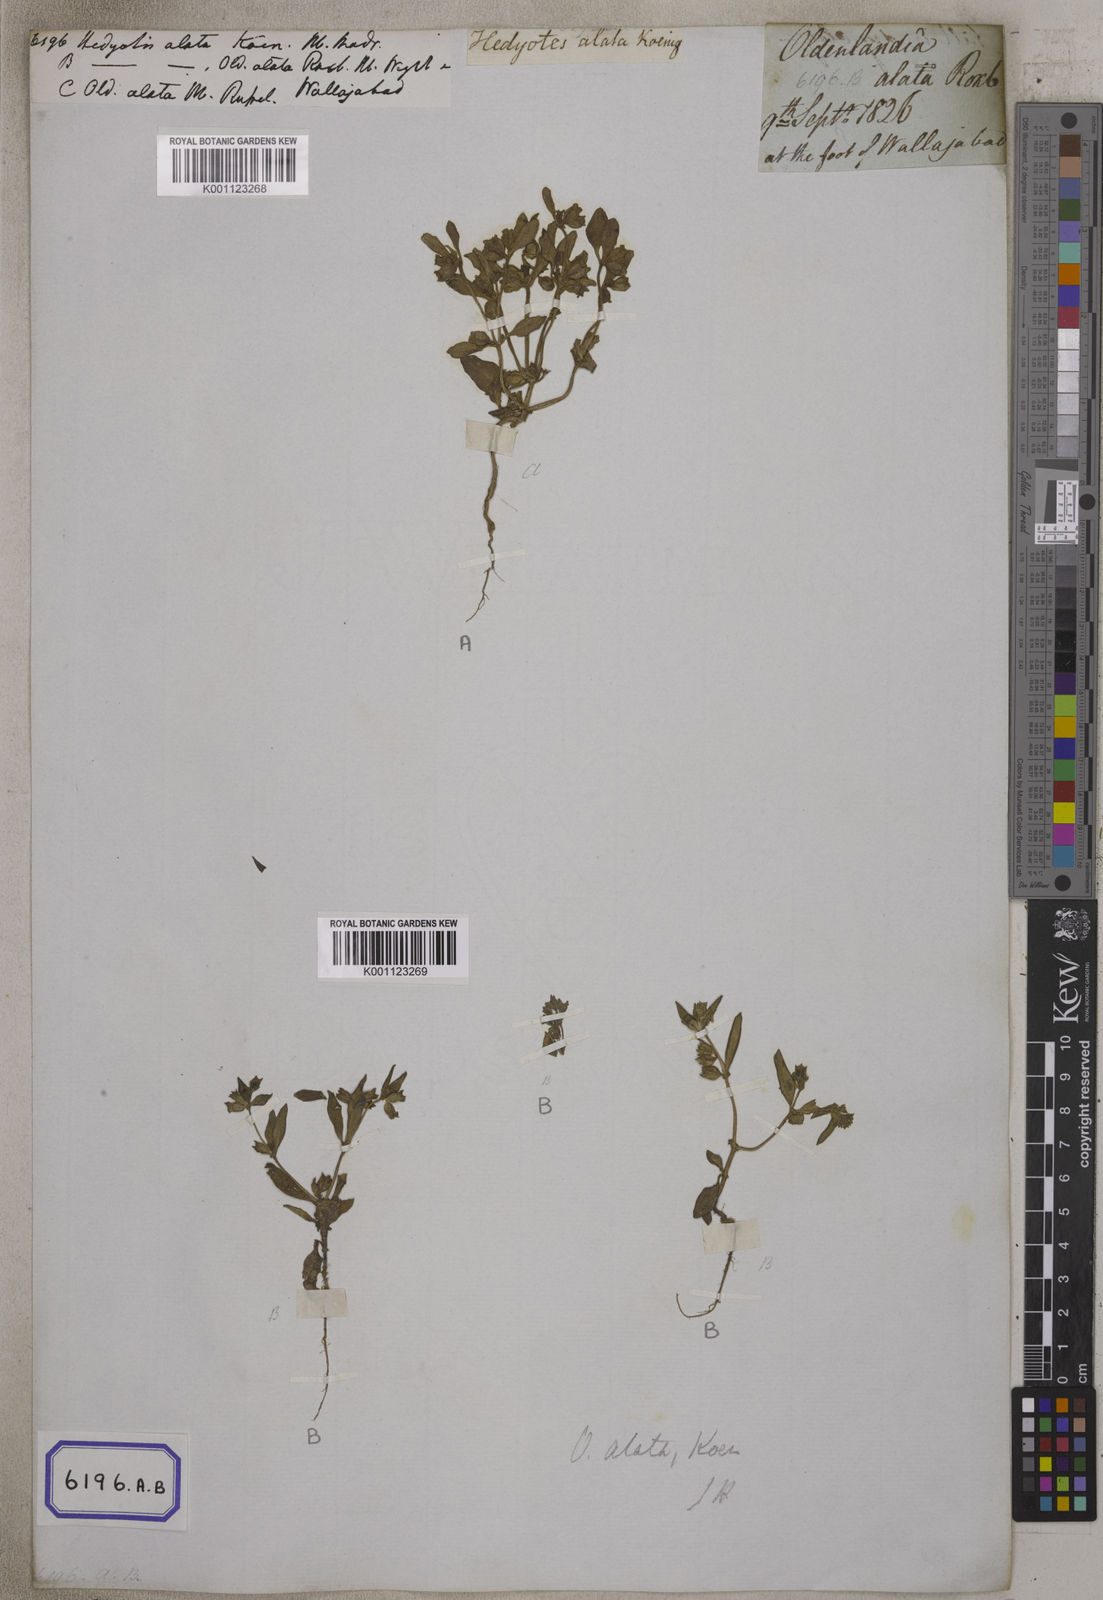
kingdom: Plantae
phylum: Tracheophyta
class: Magnoliopsida
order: Gentianales
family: Rubiaceae
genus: Hedyotis
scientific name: Hedyotis
